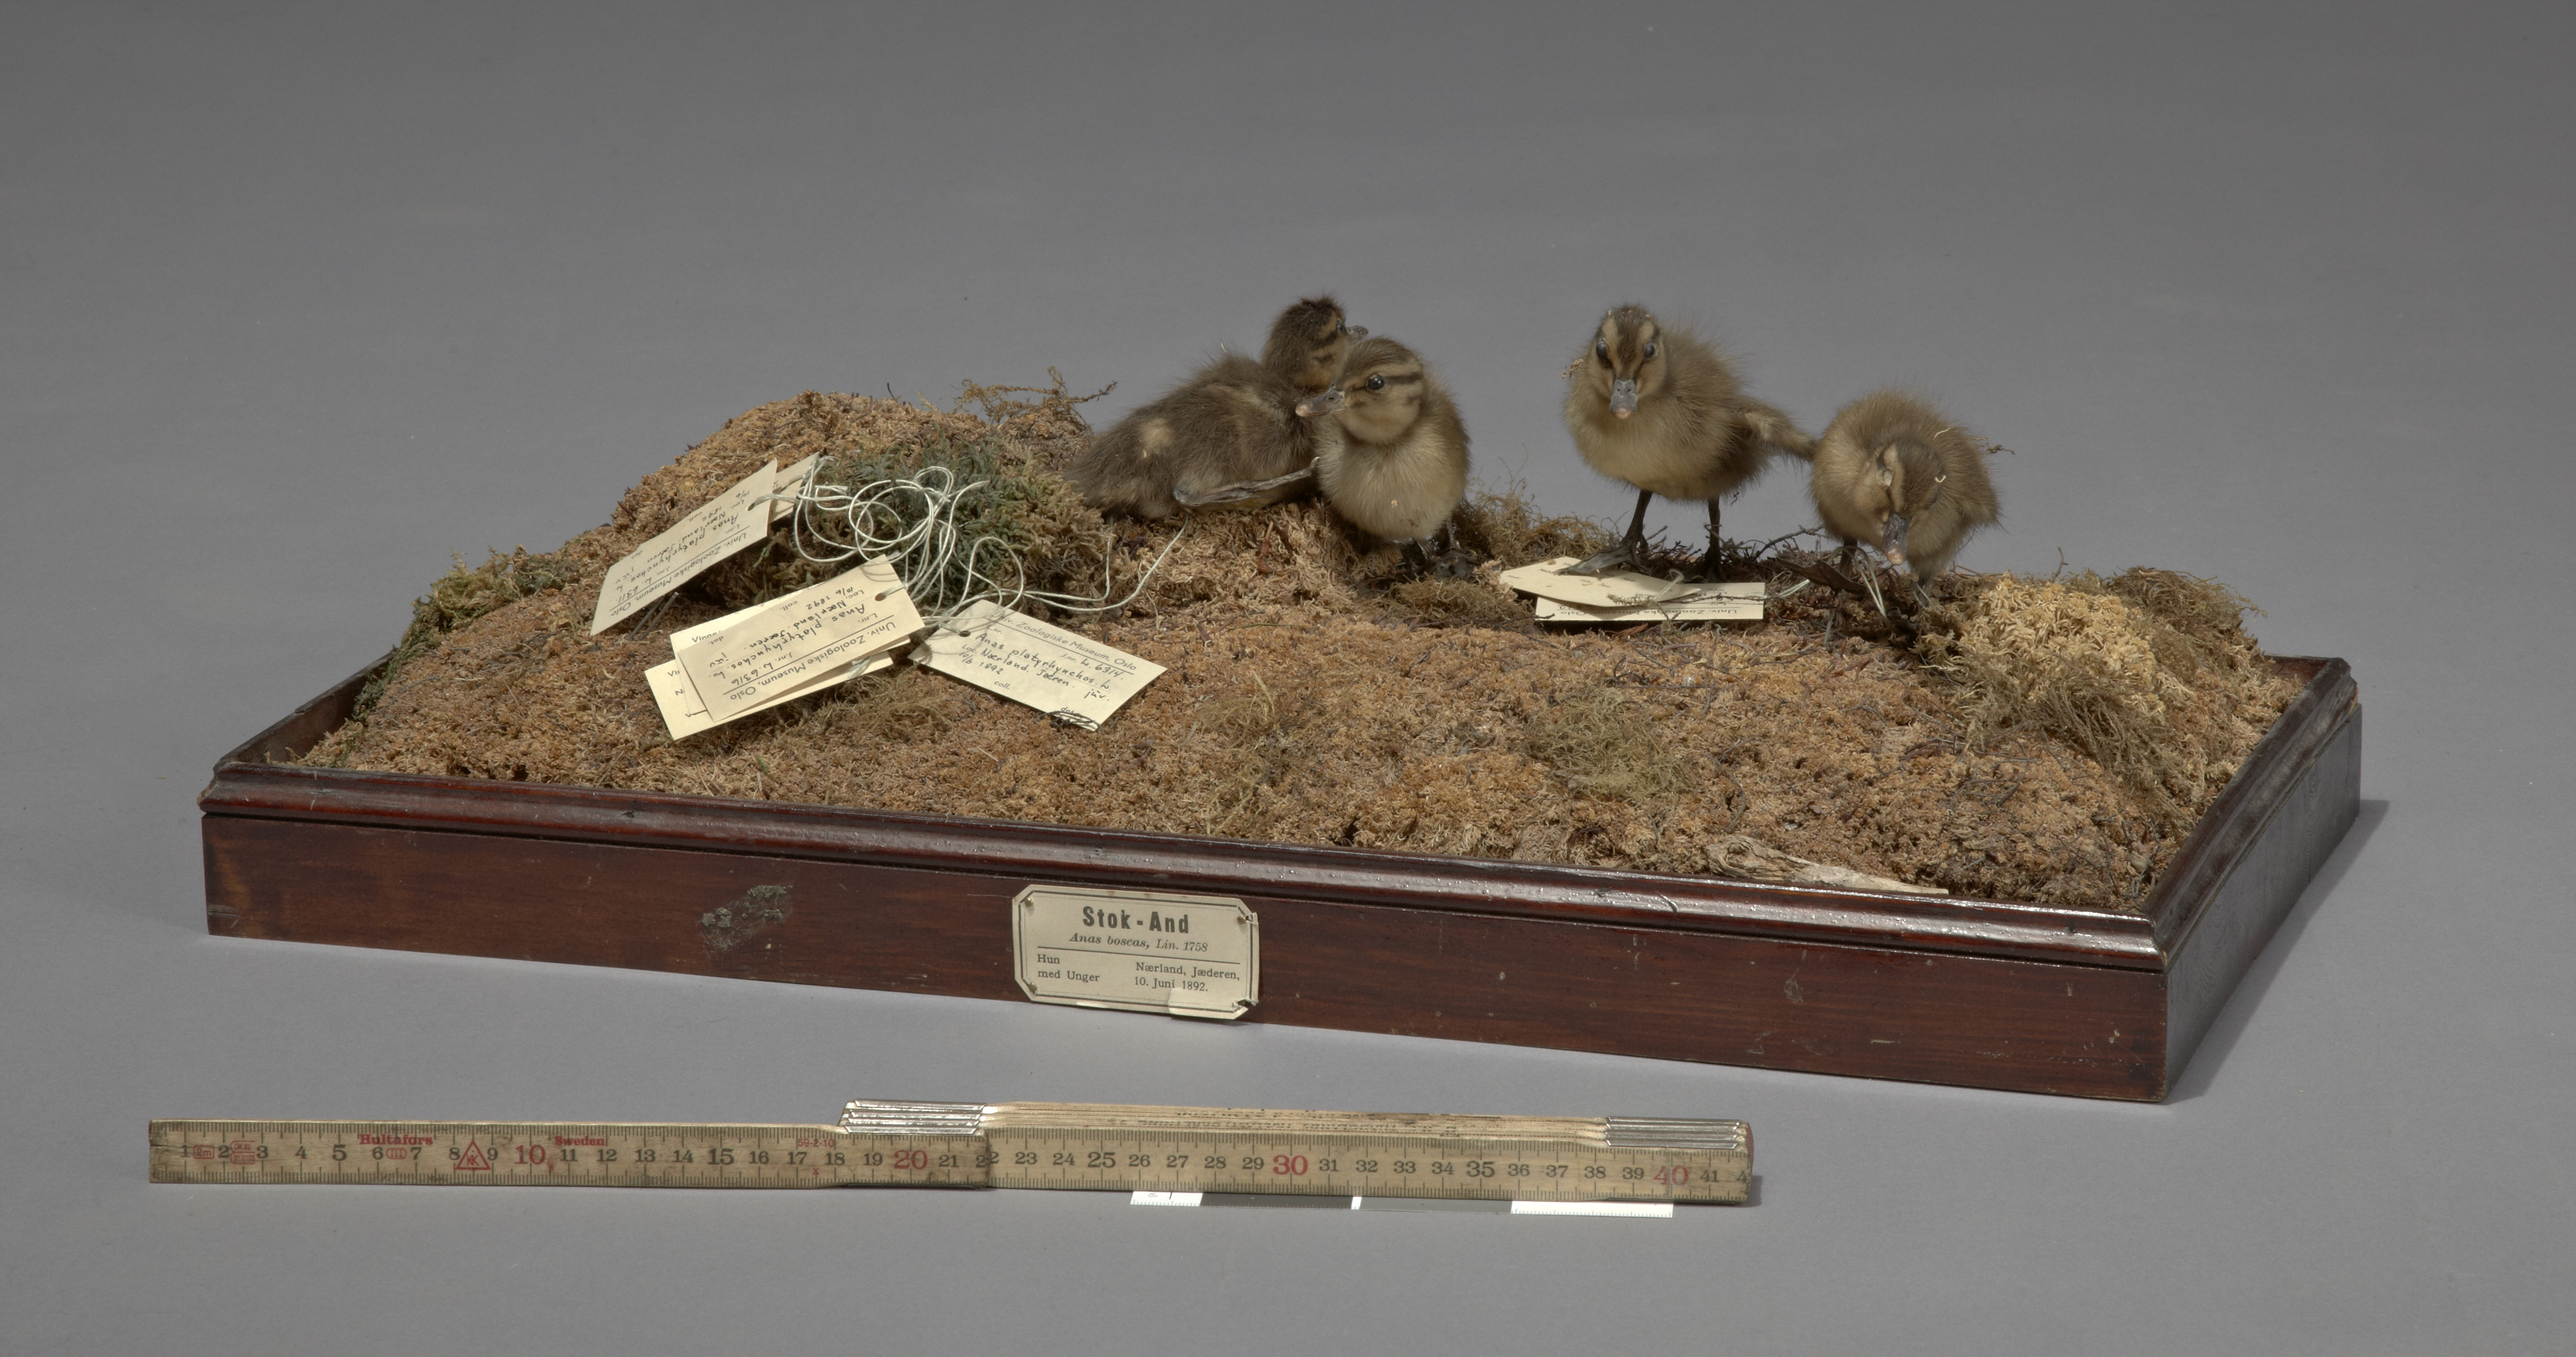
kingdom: Animalia
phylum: Chordata
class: Aves
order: Anseriformes
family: Anatidae
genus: Anas
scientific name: Anas platyrhynchos
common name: Mallard
